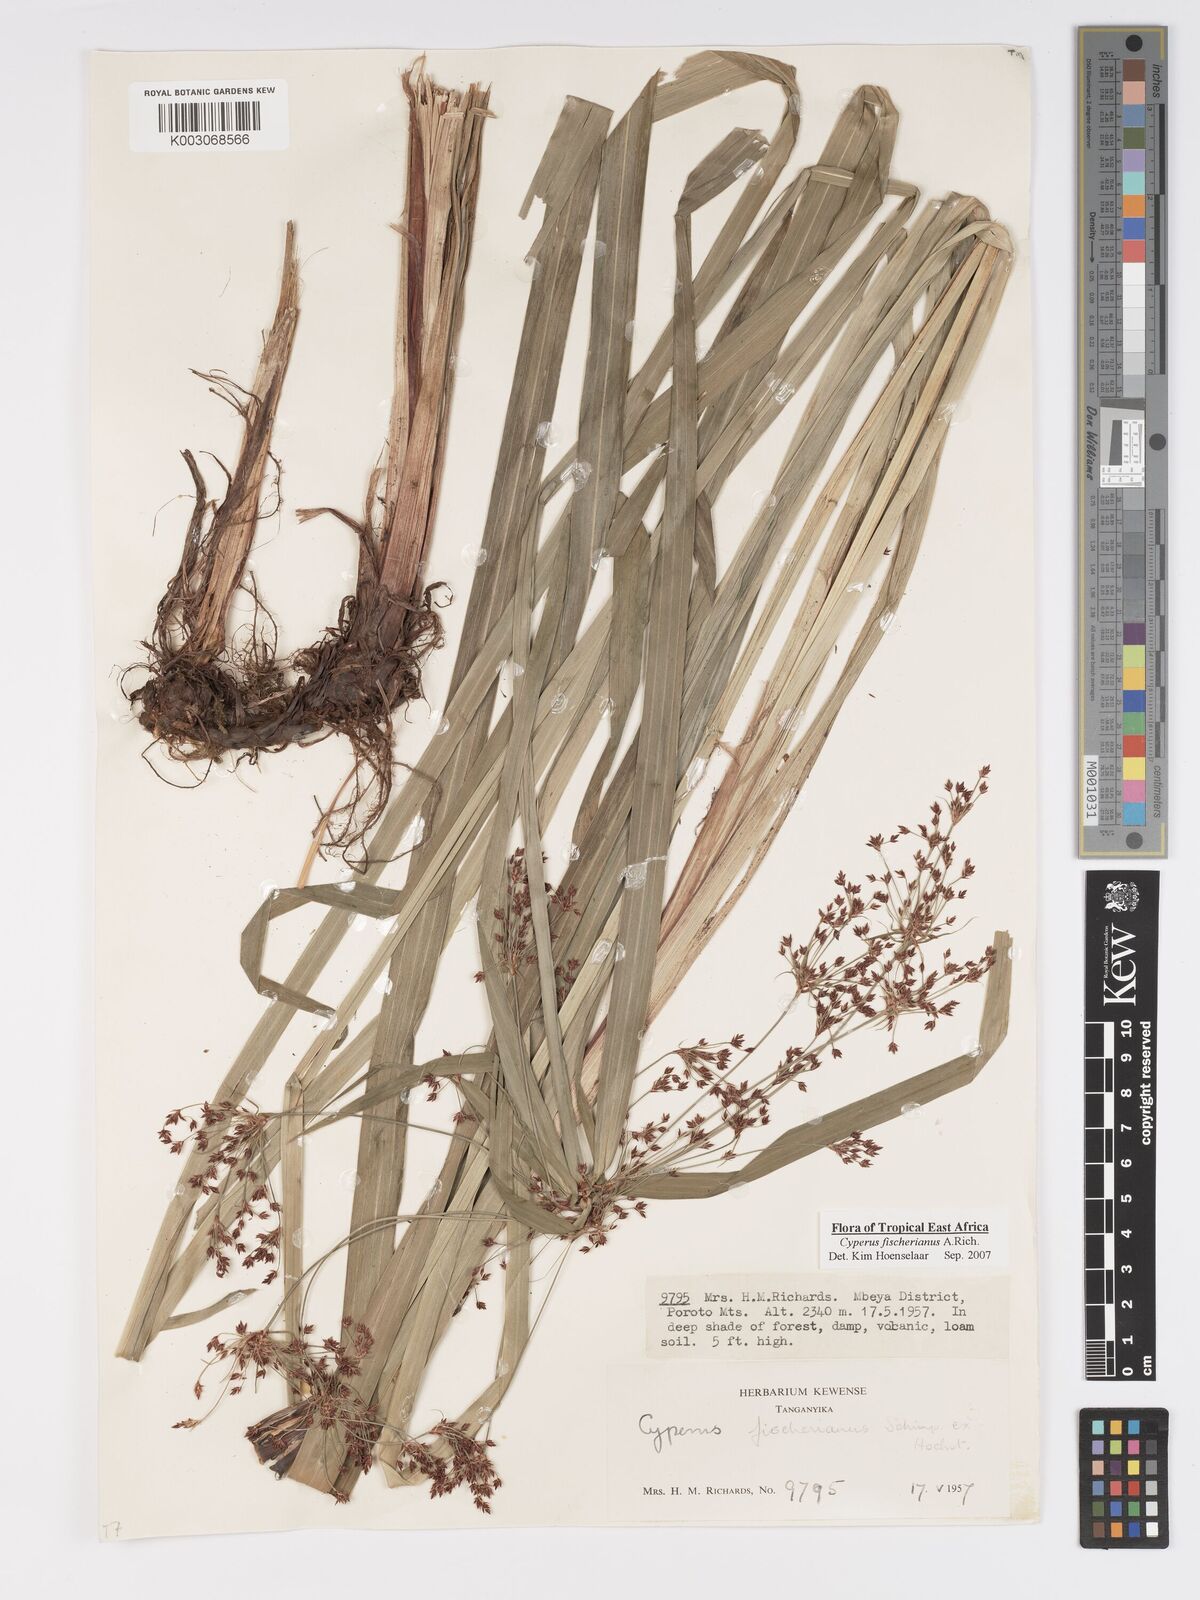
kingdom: Plantae
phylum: Tracheophyta
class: Liliopsida
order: Poales
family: Cyperaceae
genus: Cyperus
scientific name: Cyperus fischerianus
